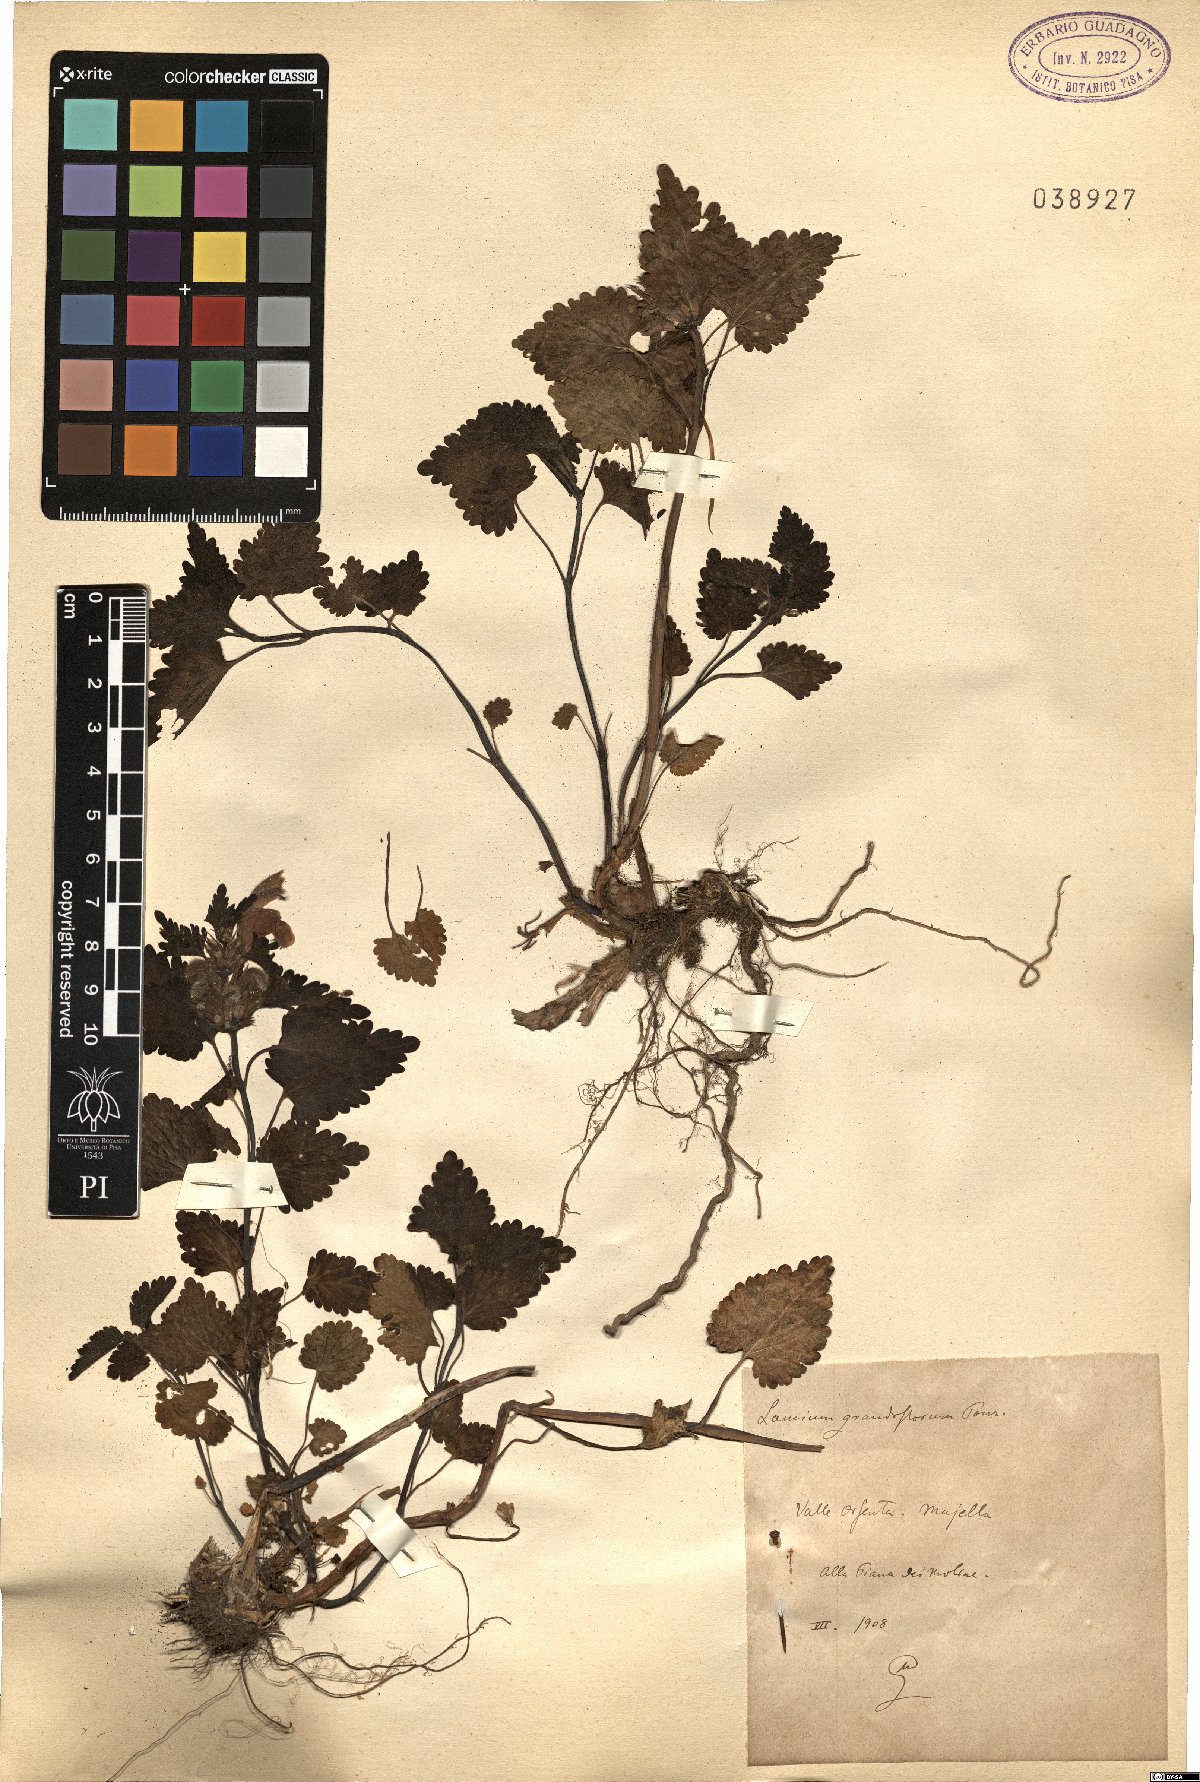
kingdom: Plantae
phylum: Tracheophyta
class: Magnoliopsida
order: Lamiales
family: Lamiaceae
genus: Lamium
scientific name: Lamium garganicum
